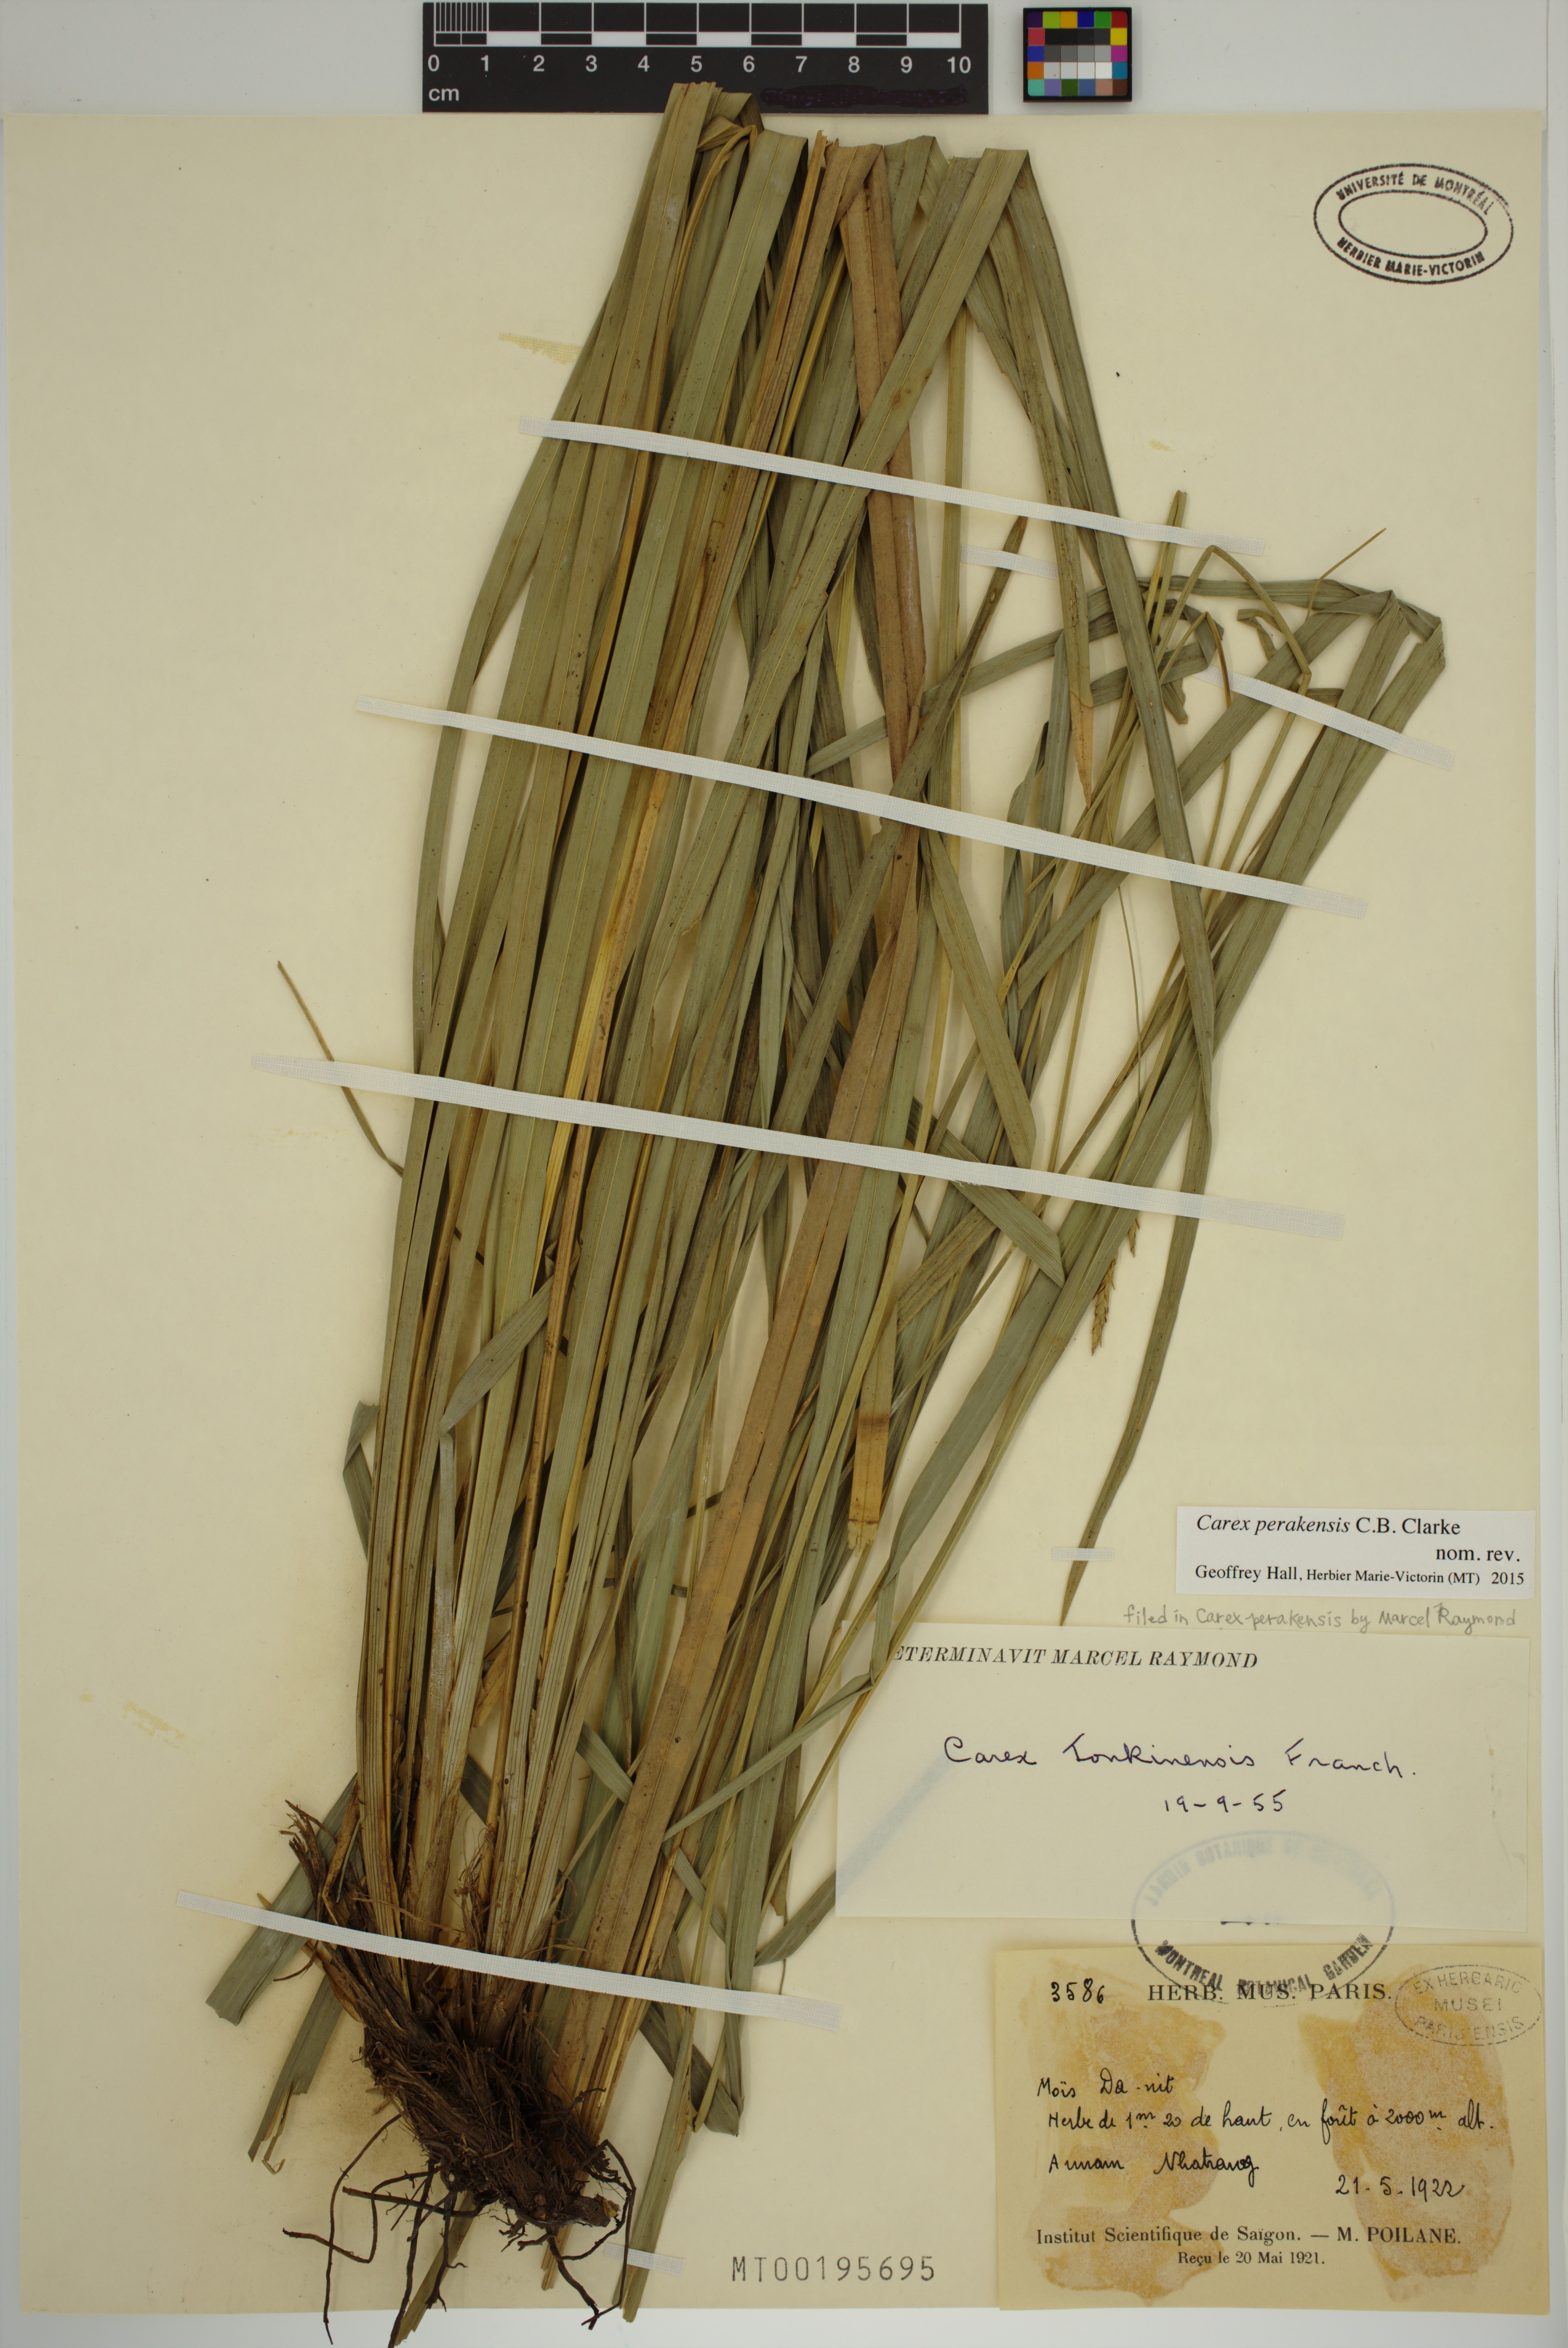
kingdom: Plantae
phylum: Tracheophyta
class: Liliopsida
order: Poales
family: Cyperaceae
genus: Carex
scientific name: Carex perakensis
